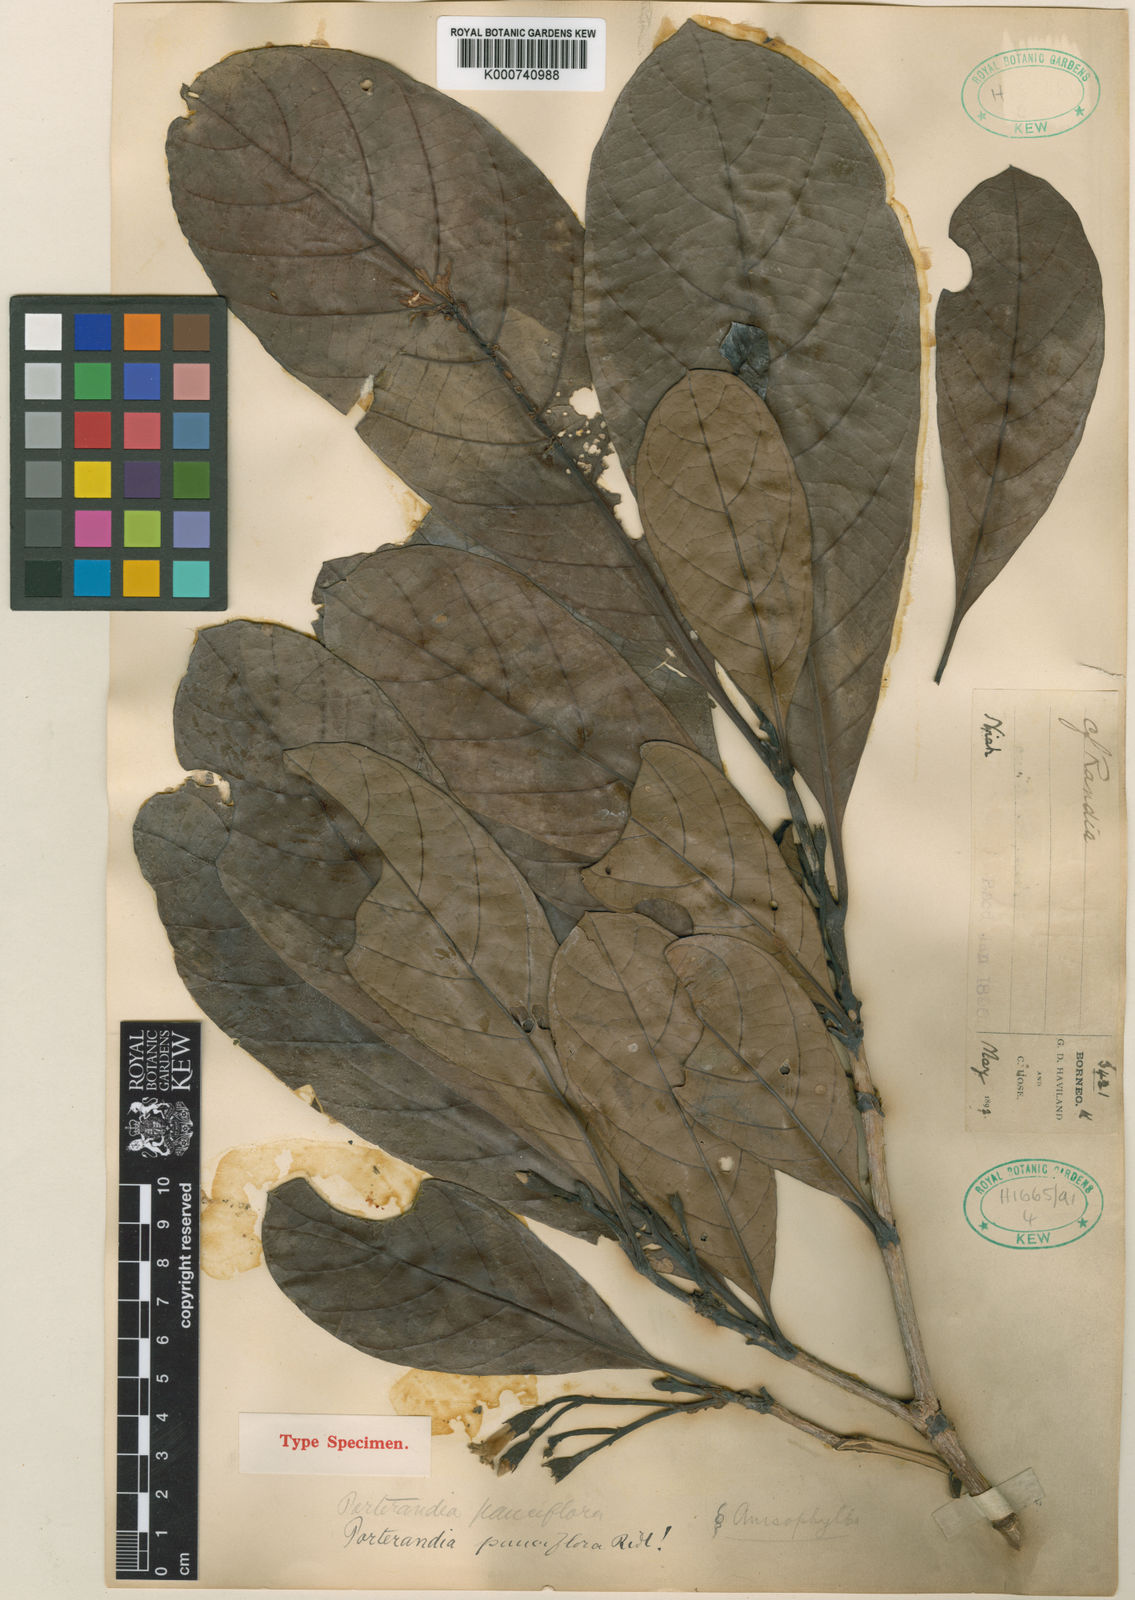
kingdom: Plantae
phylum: Tracheophyta
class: Magnoliopsida
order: Gentianales
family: Rubiaceae
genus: Porterandia
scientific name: Porterandia
